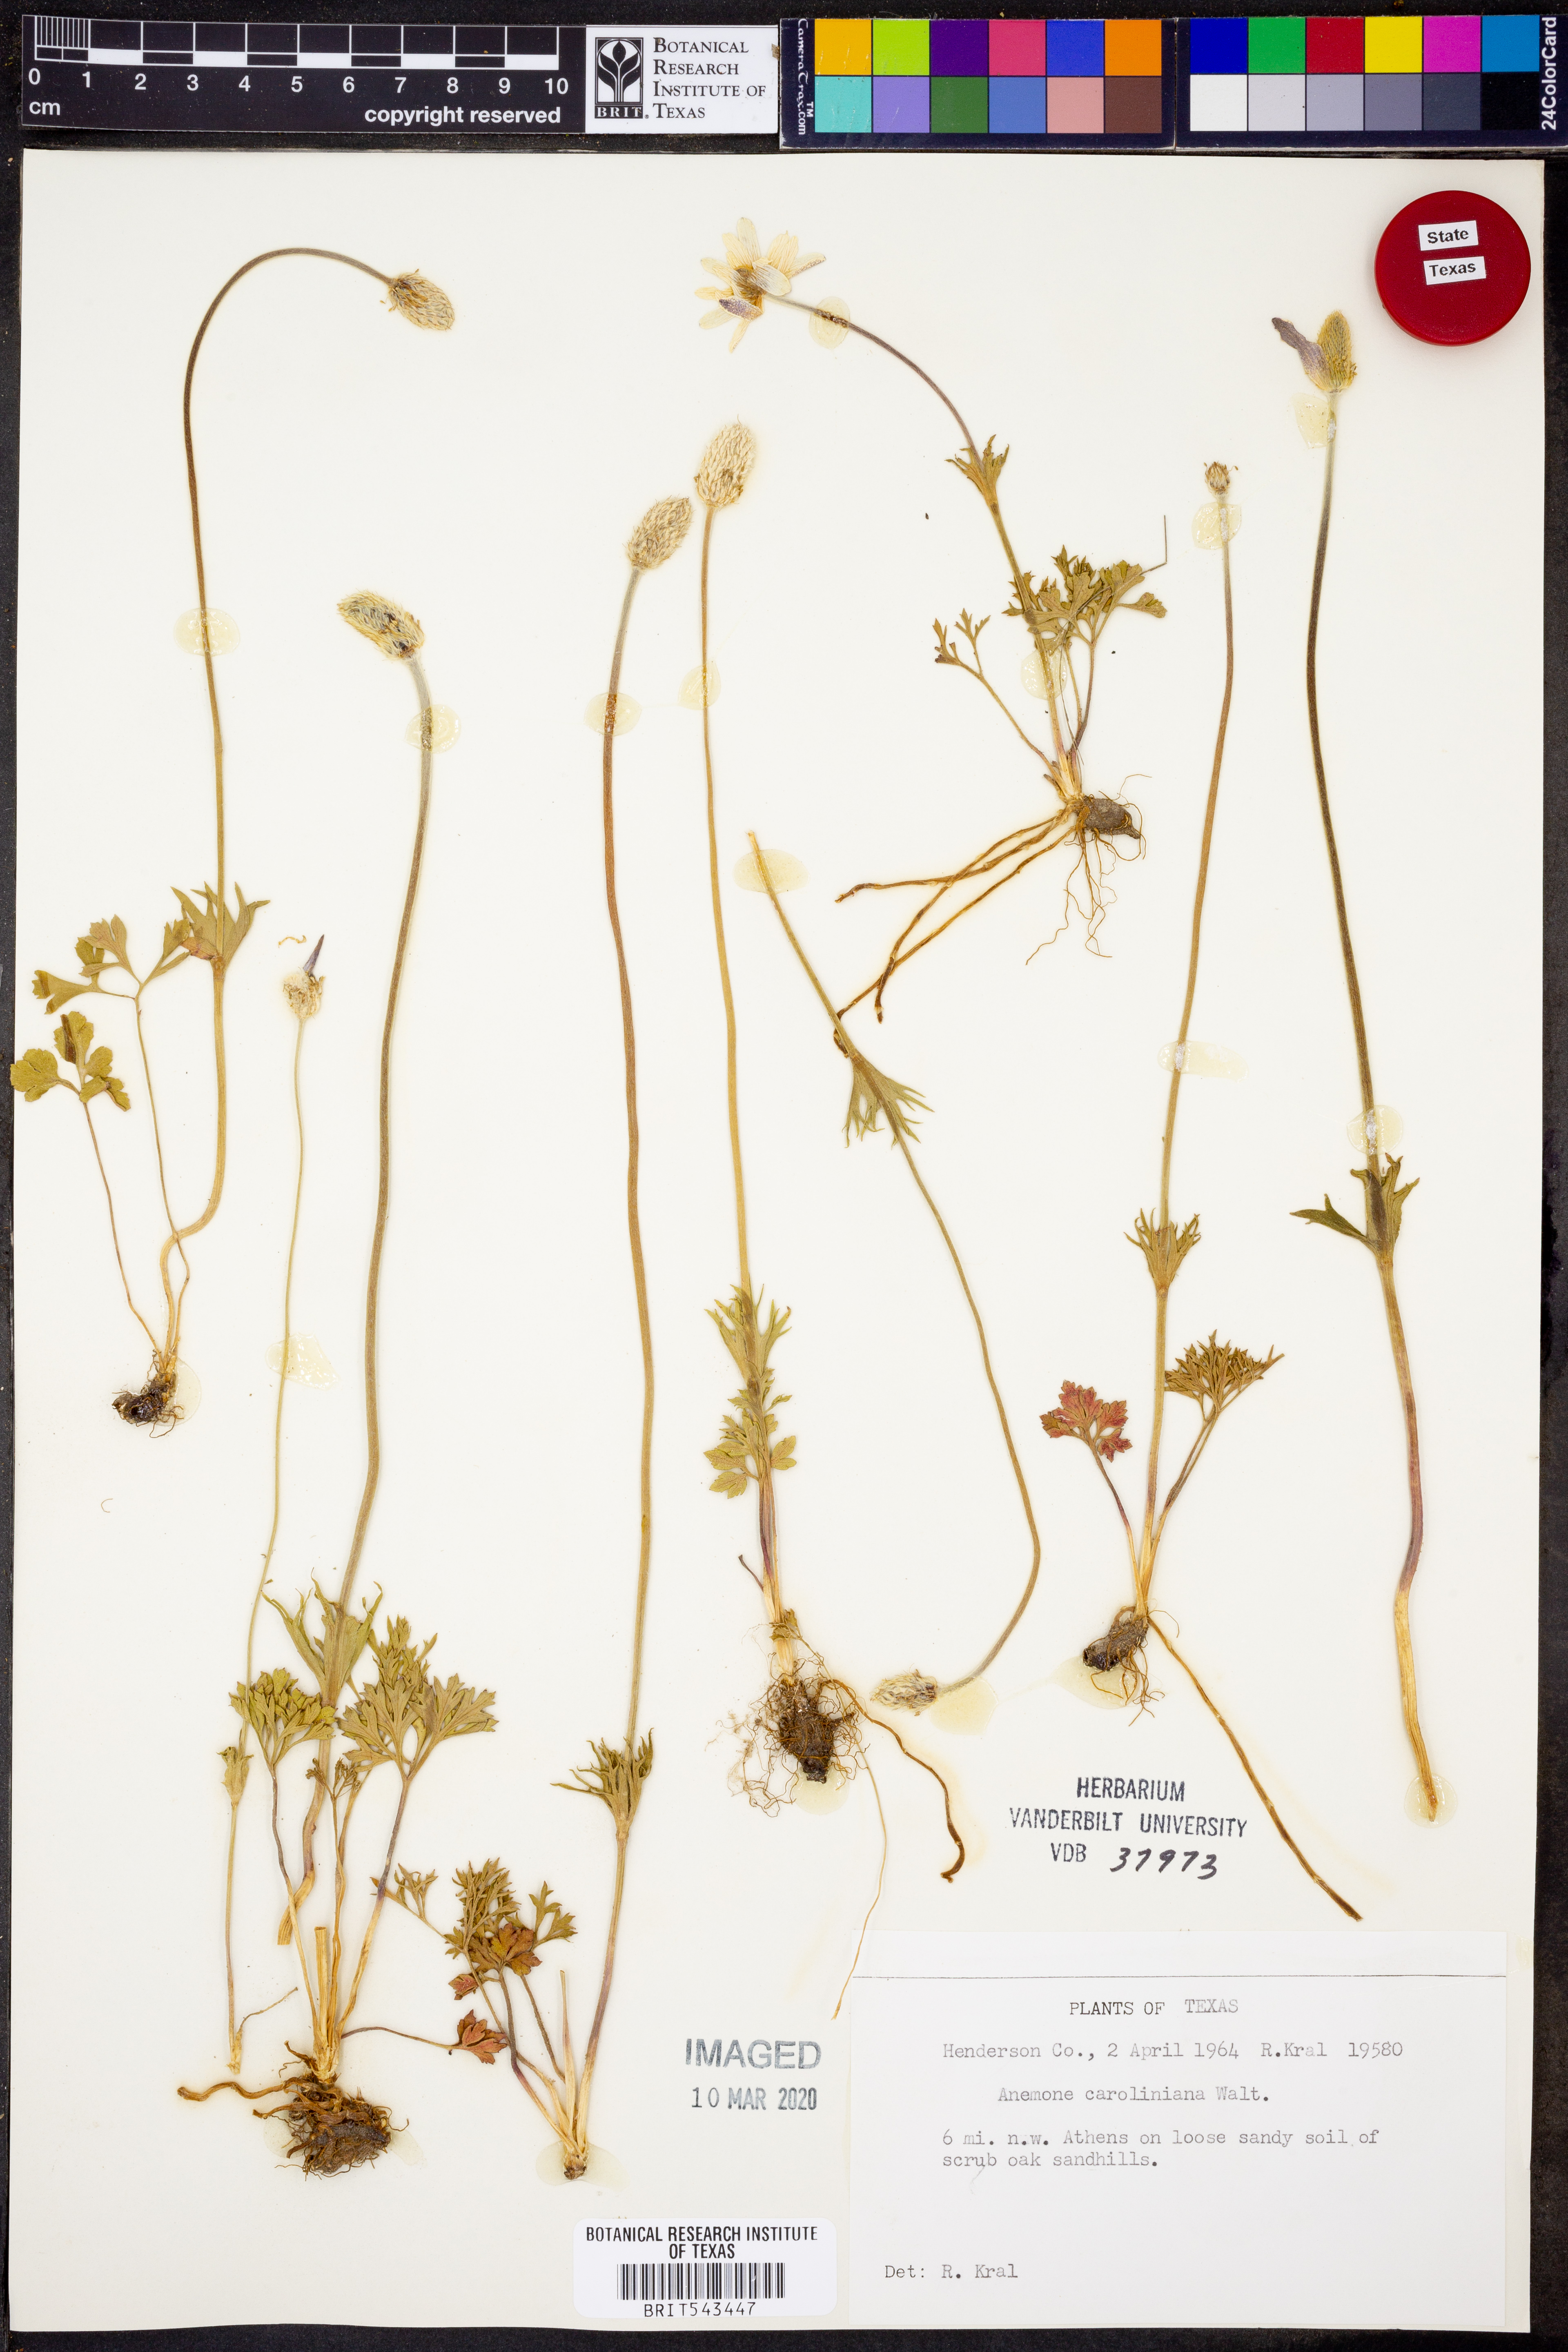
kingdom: Plantae
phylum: Tracheophyta
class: Magnoliopsida
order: Ranunculales
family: Ranunculaceae
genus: Anemone
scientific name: Anemone caroliniana
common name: Carolina anemone
